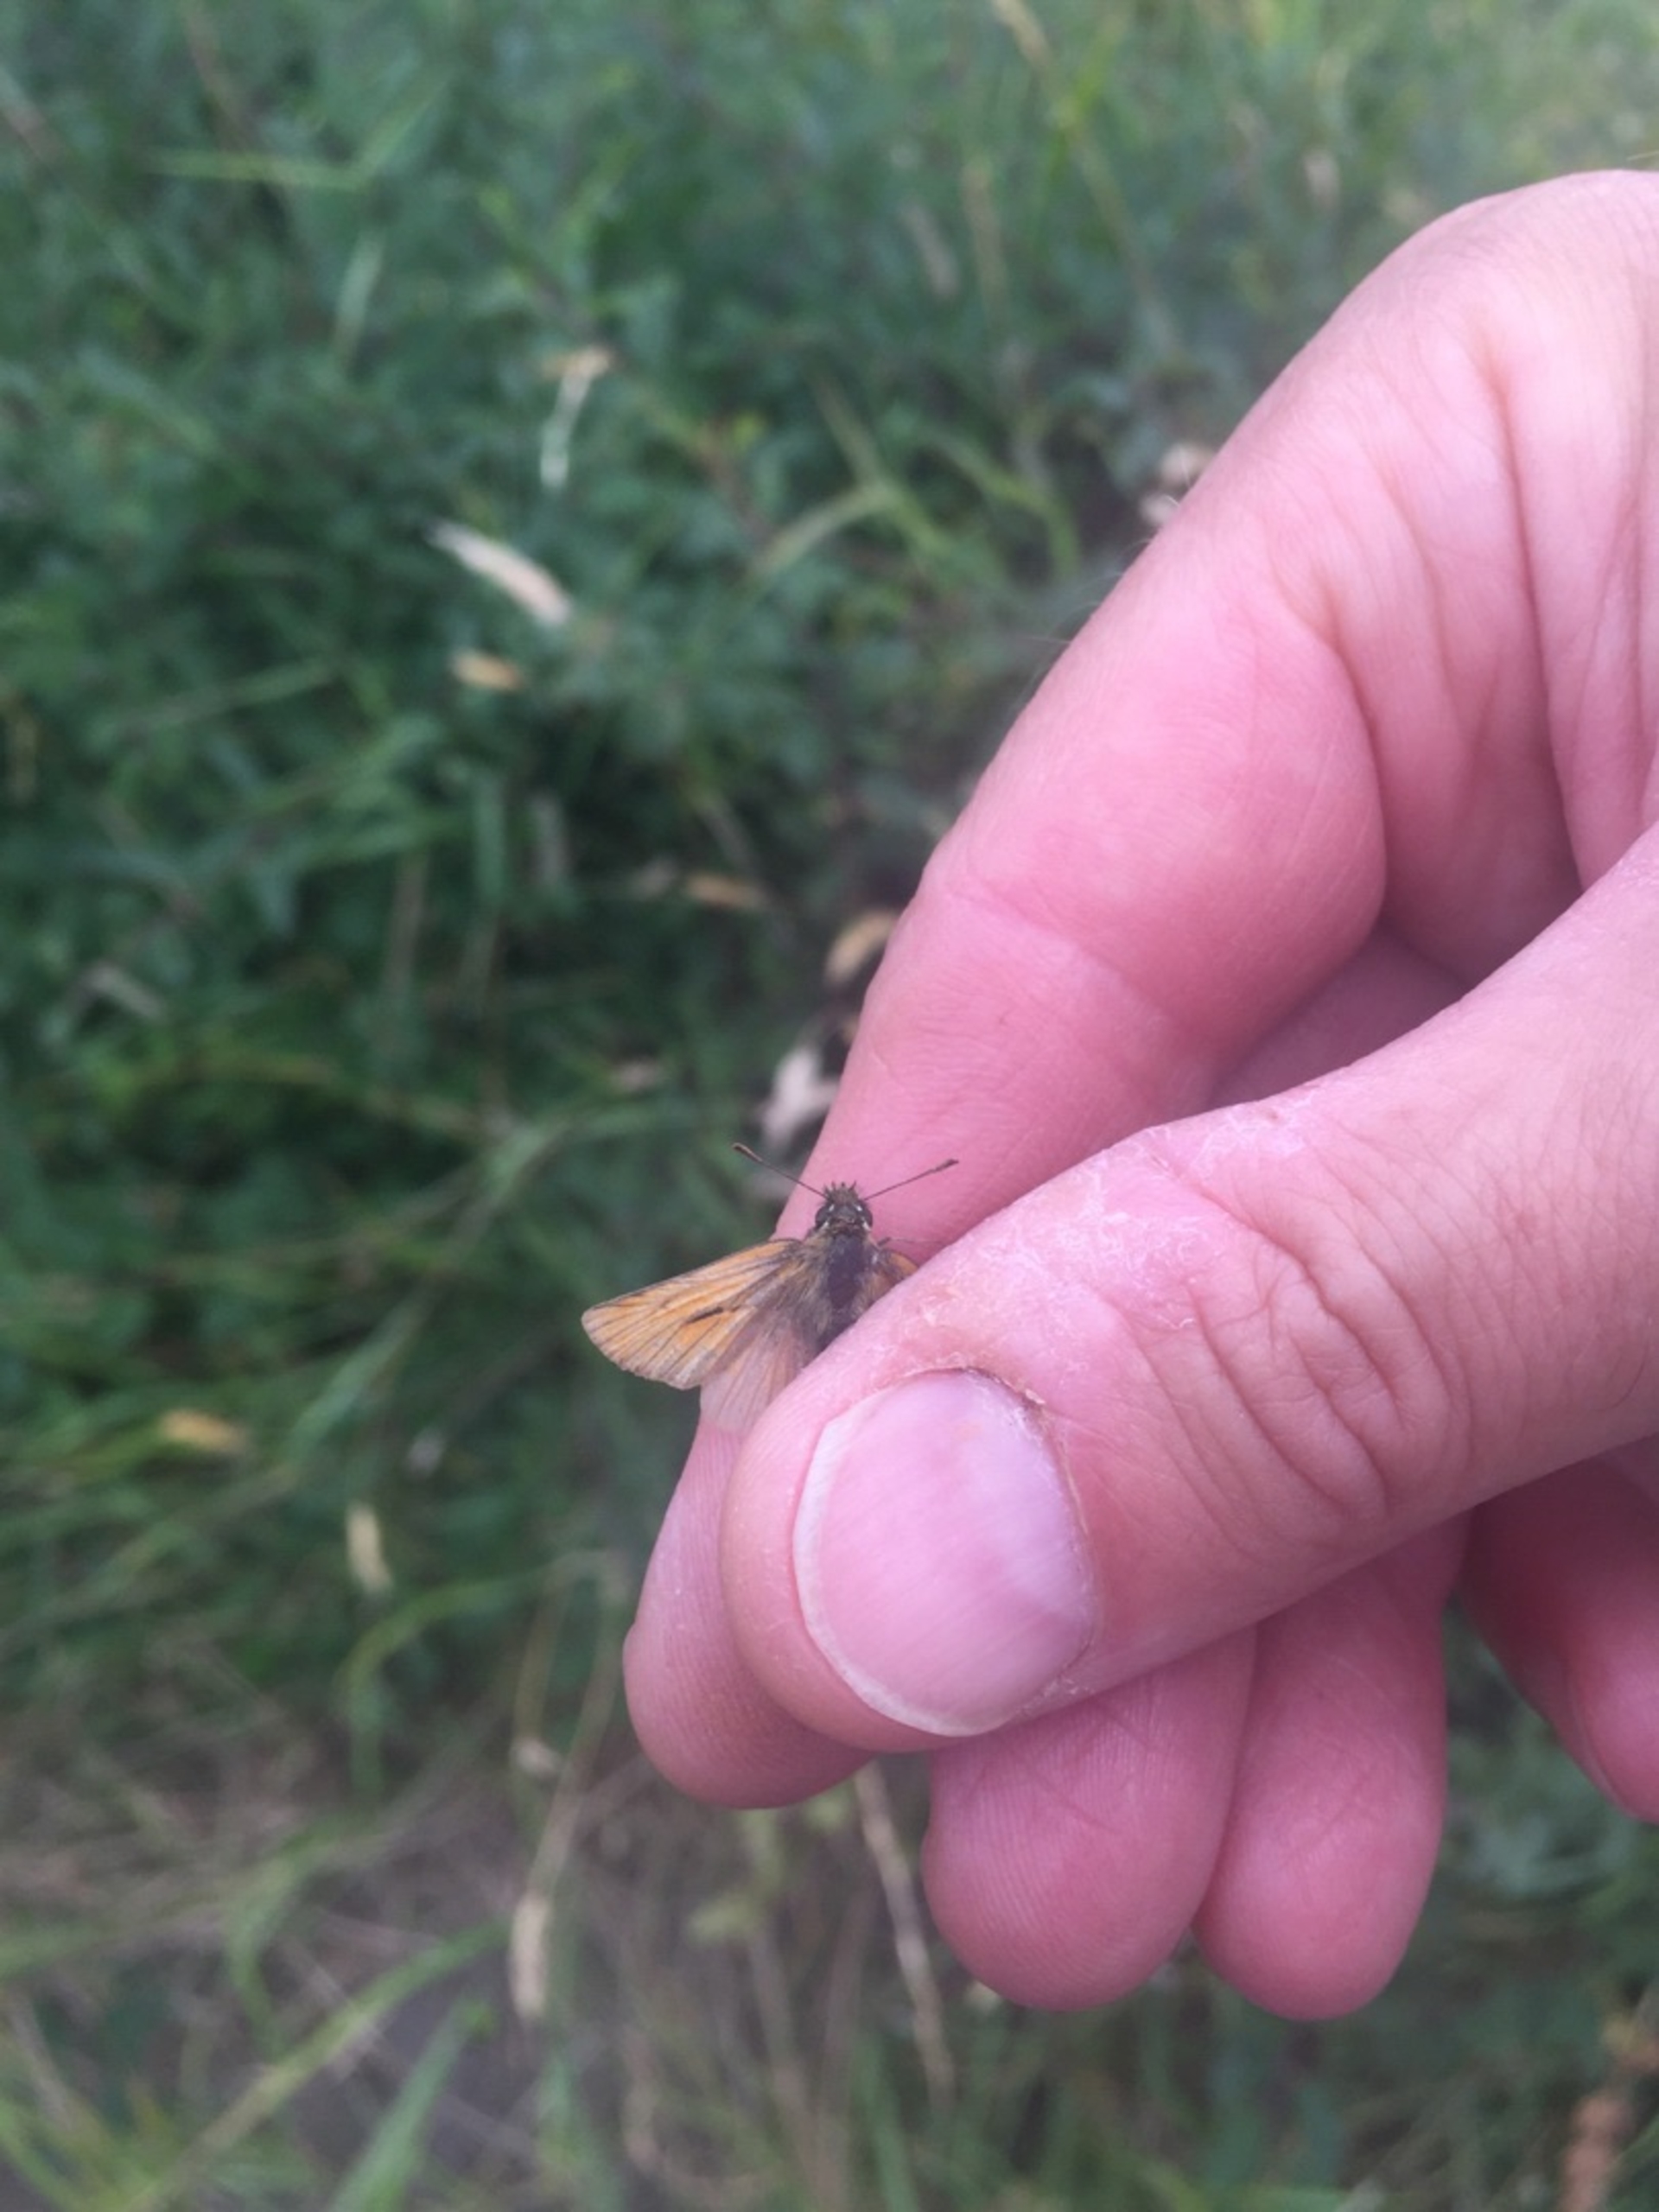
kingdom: Animalia
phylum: Arthropoda
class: Insecta
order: Lepidoptera
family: Hesperiidae
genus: Thymelicus
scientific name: Thymelicus sylvestris
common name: Skråstregbredpande
